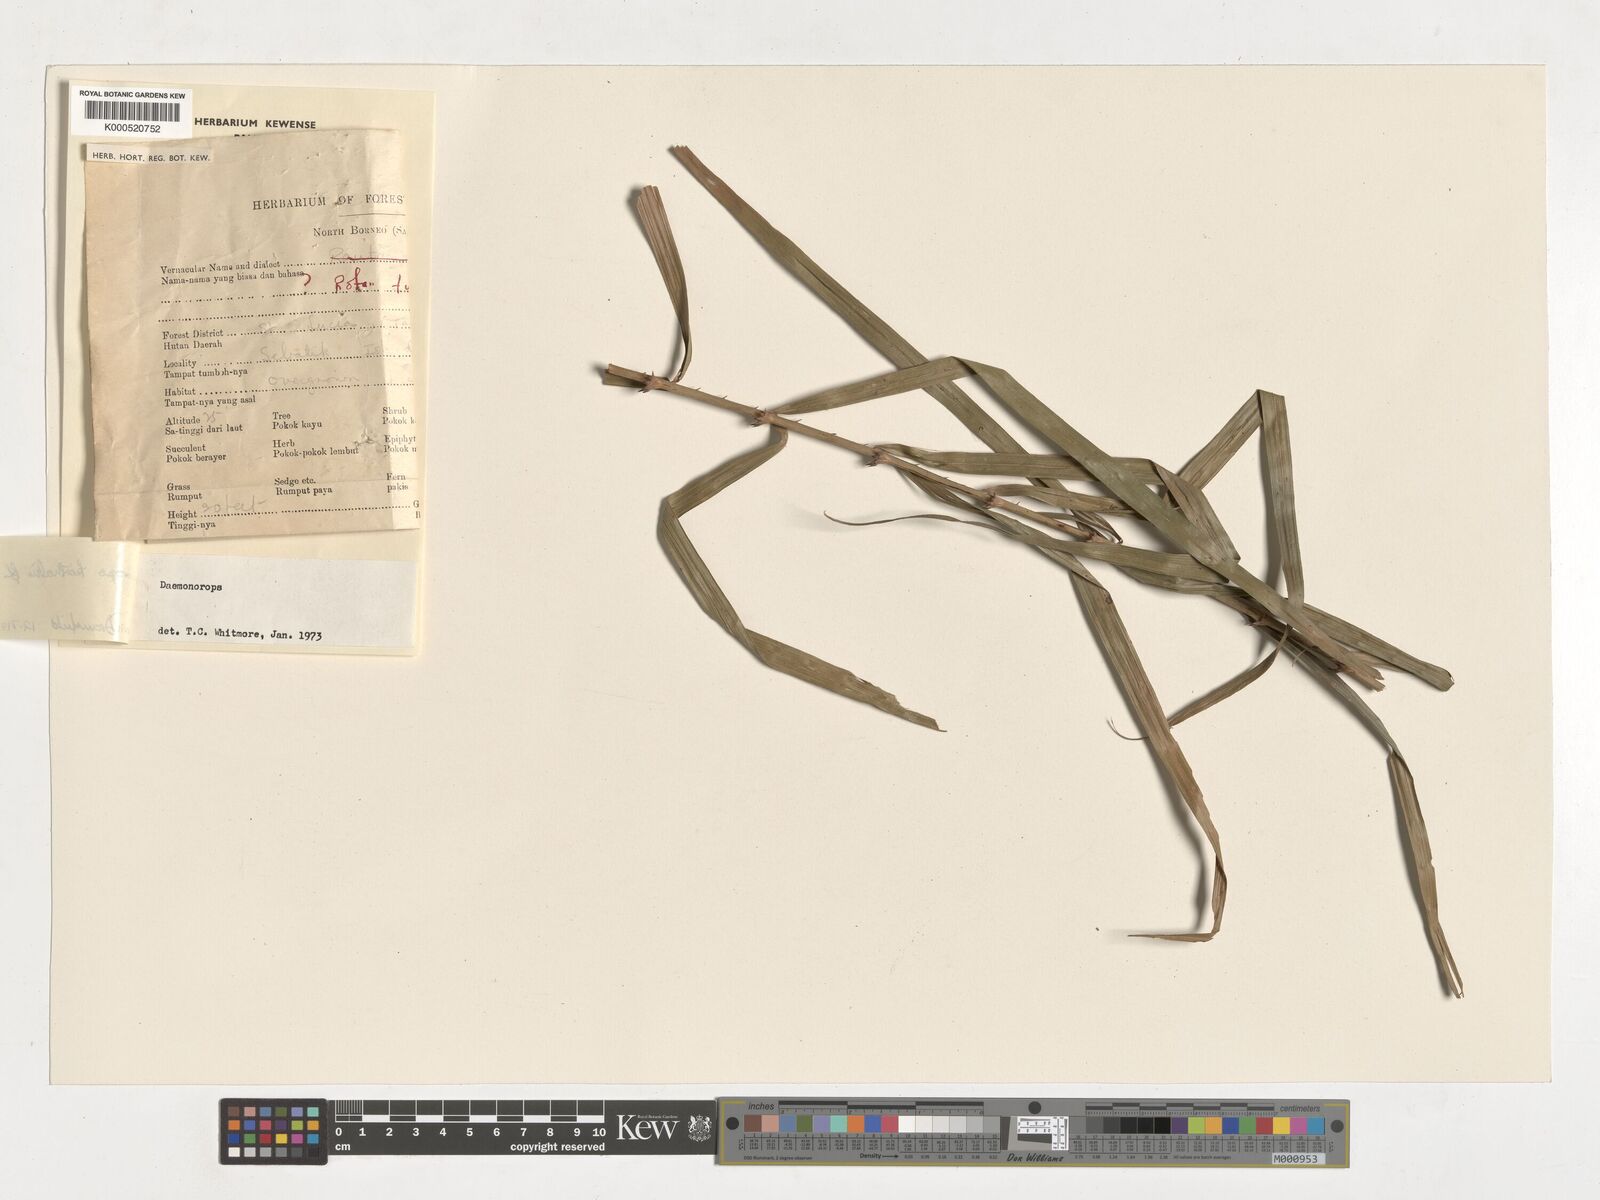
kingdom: Plantae
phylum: Tracheophyta
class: Liliopsida
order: Arecales
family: Arecaceae
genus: Calamus
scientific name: Calamus hirsutus
